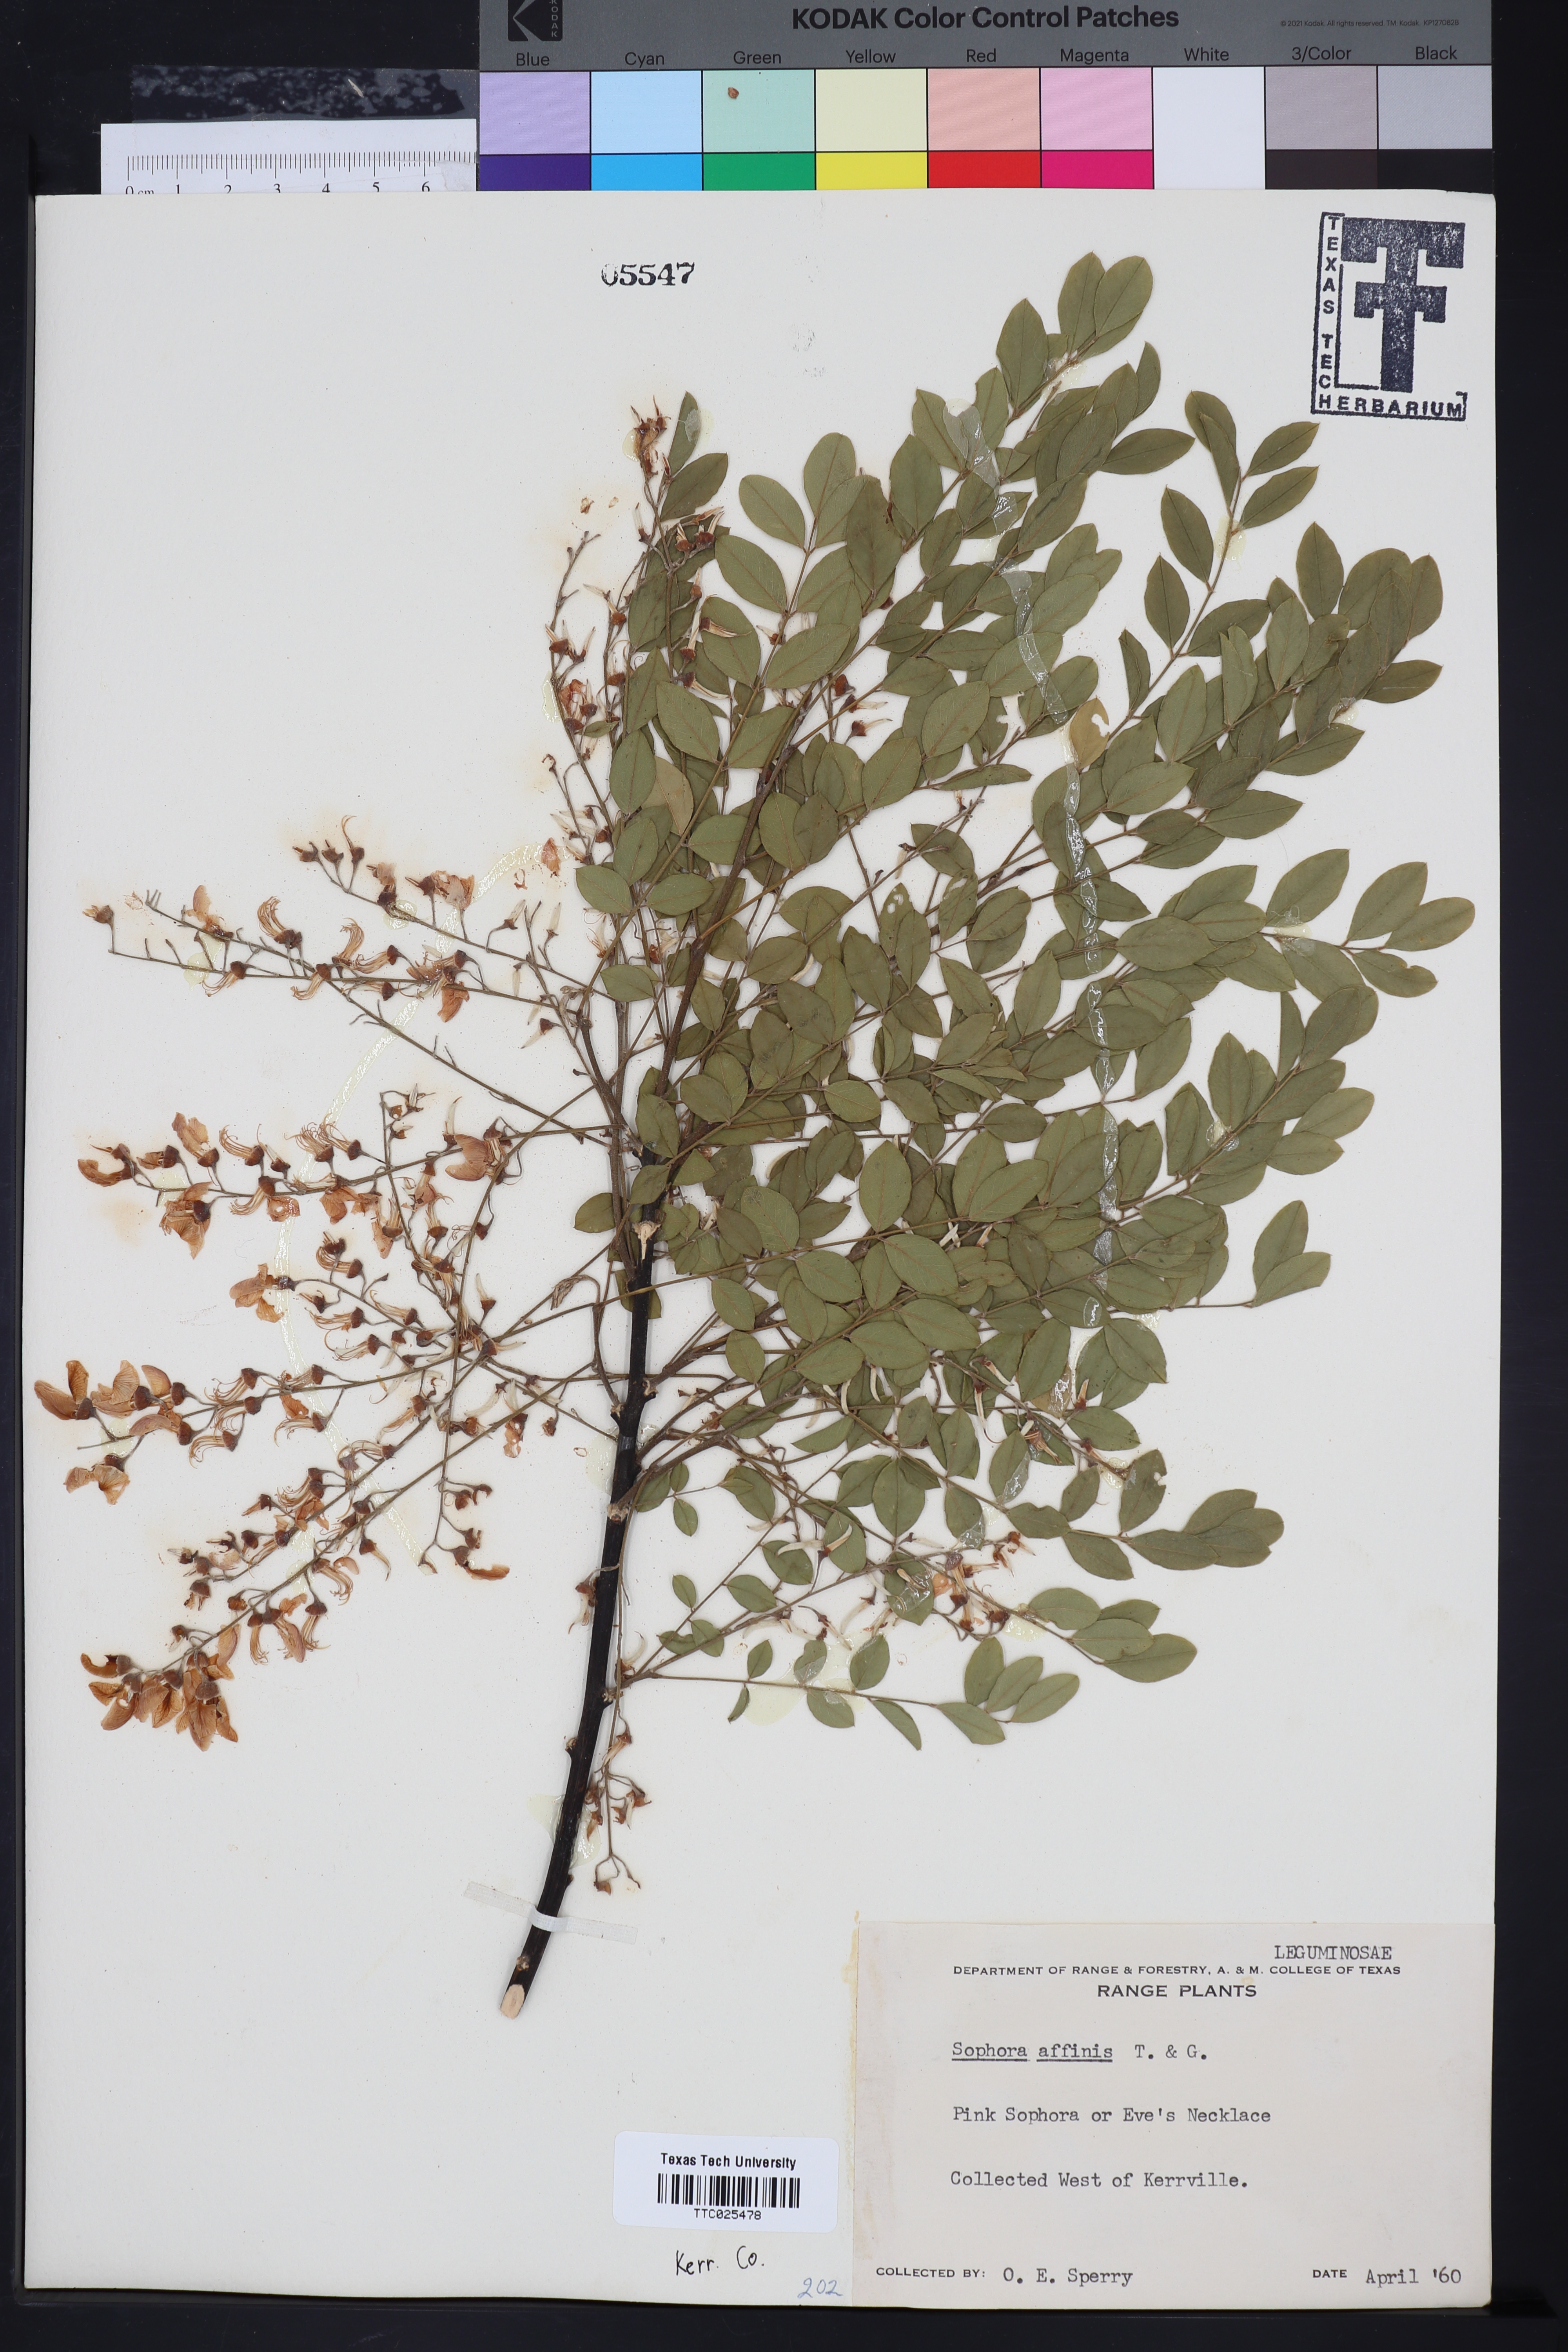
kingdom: Plantae
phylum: Tracheophyta
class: Magnoliopsida
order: Fabales
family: Fabaceae
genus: Styphnolobium
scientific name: Styphnolobium affine
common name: Texas sophora
